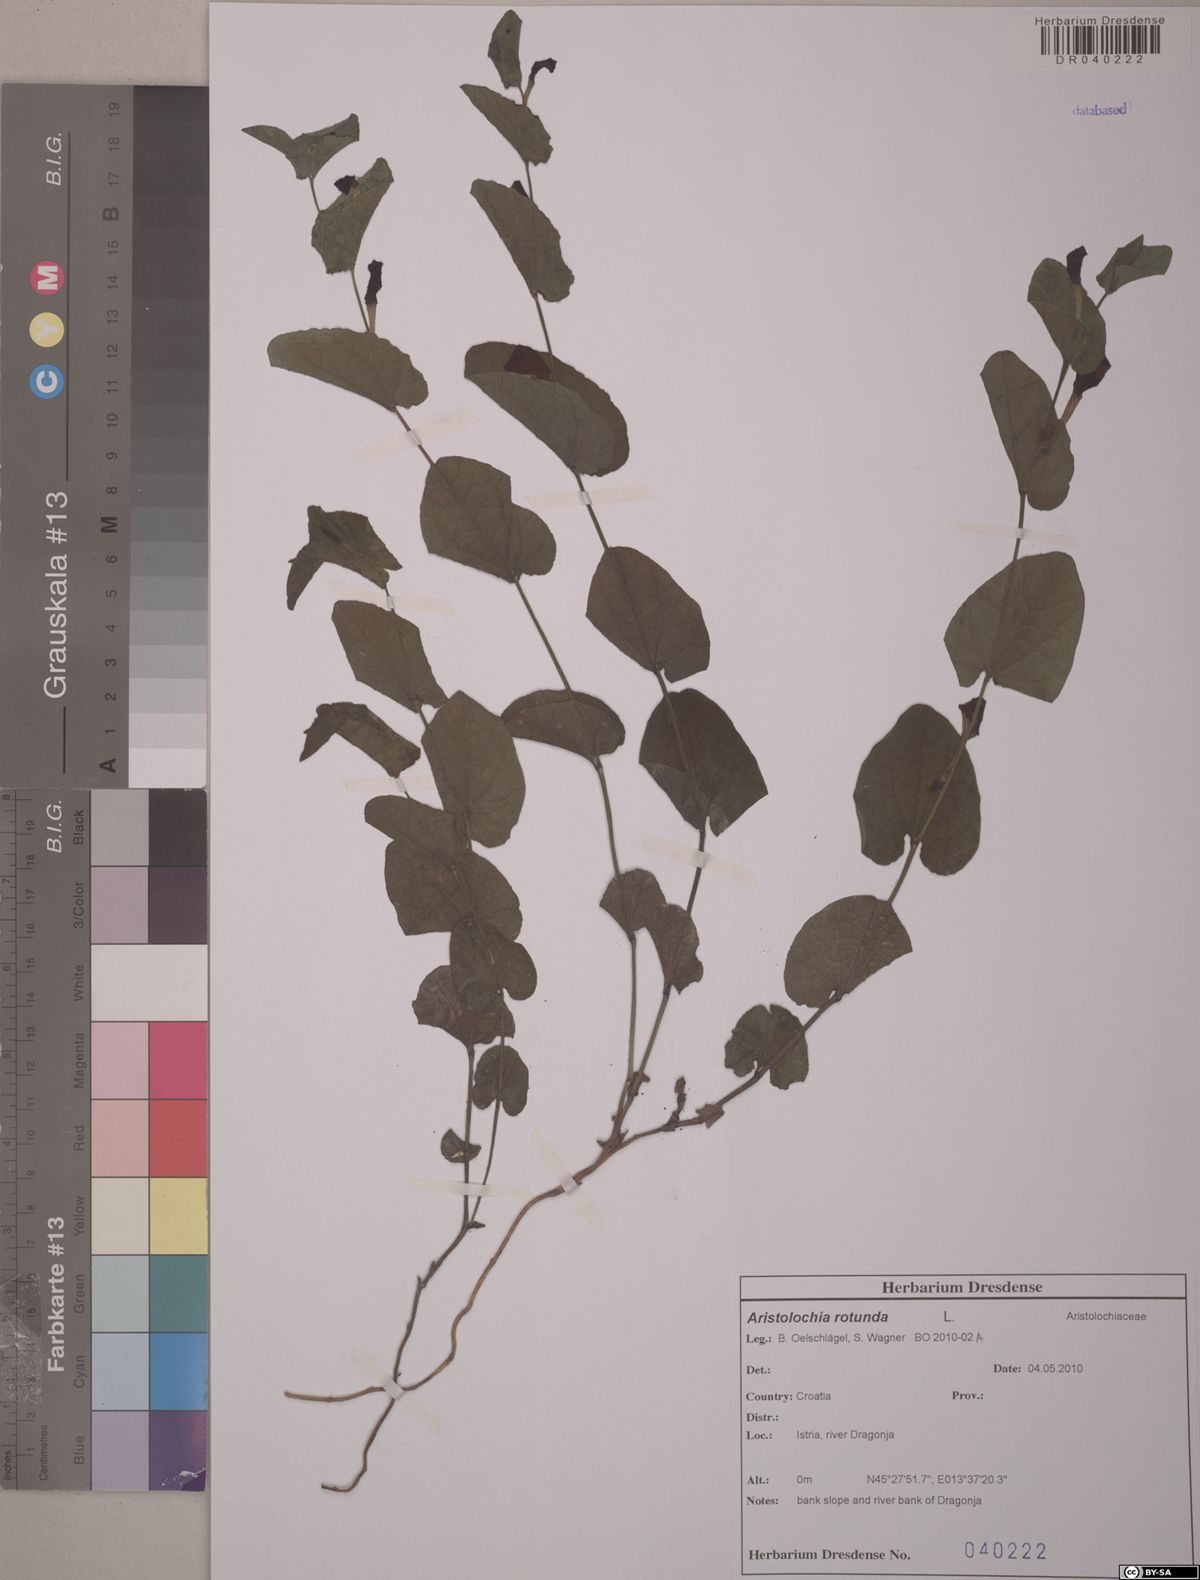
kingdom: Plantae
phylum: Tracheophyta
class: Magnoliopsida
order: Piperales
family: Aristolochiaceae
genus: Aristolochia
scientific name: Aristolochia rotunda
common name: Smearwort
